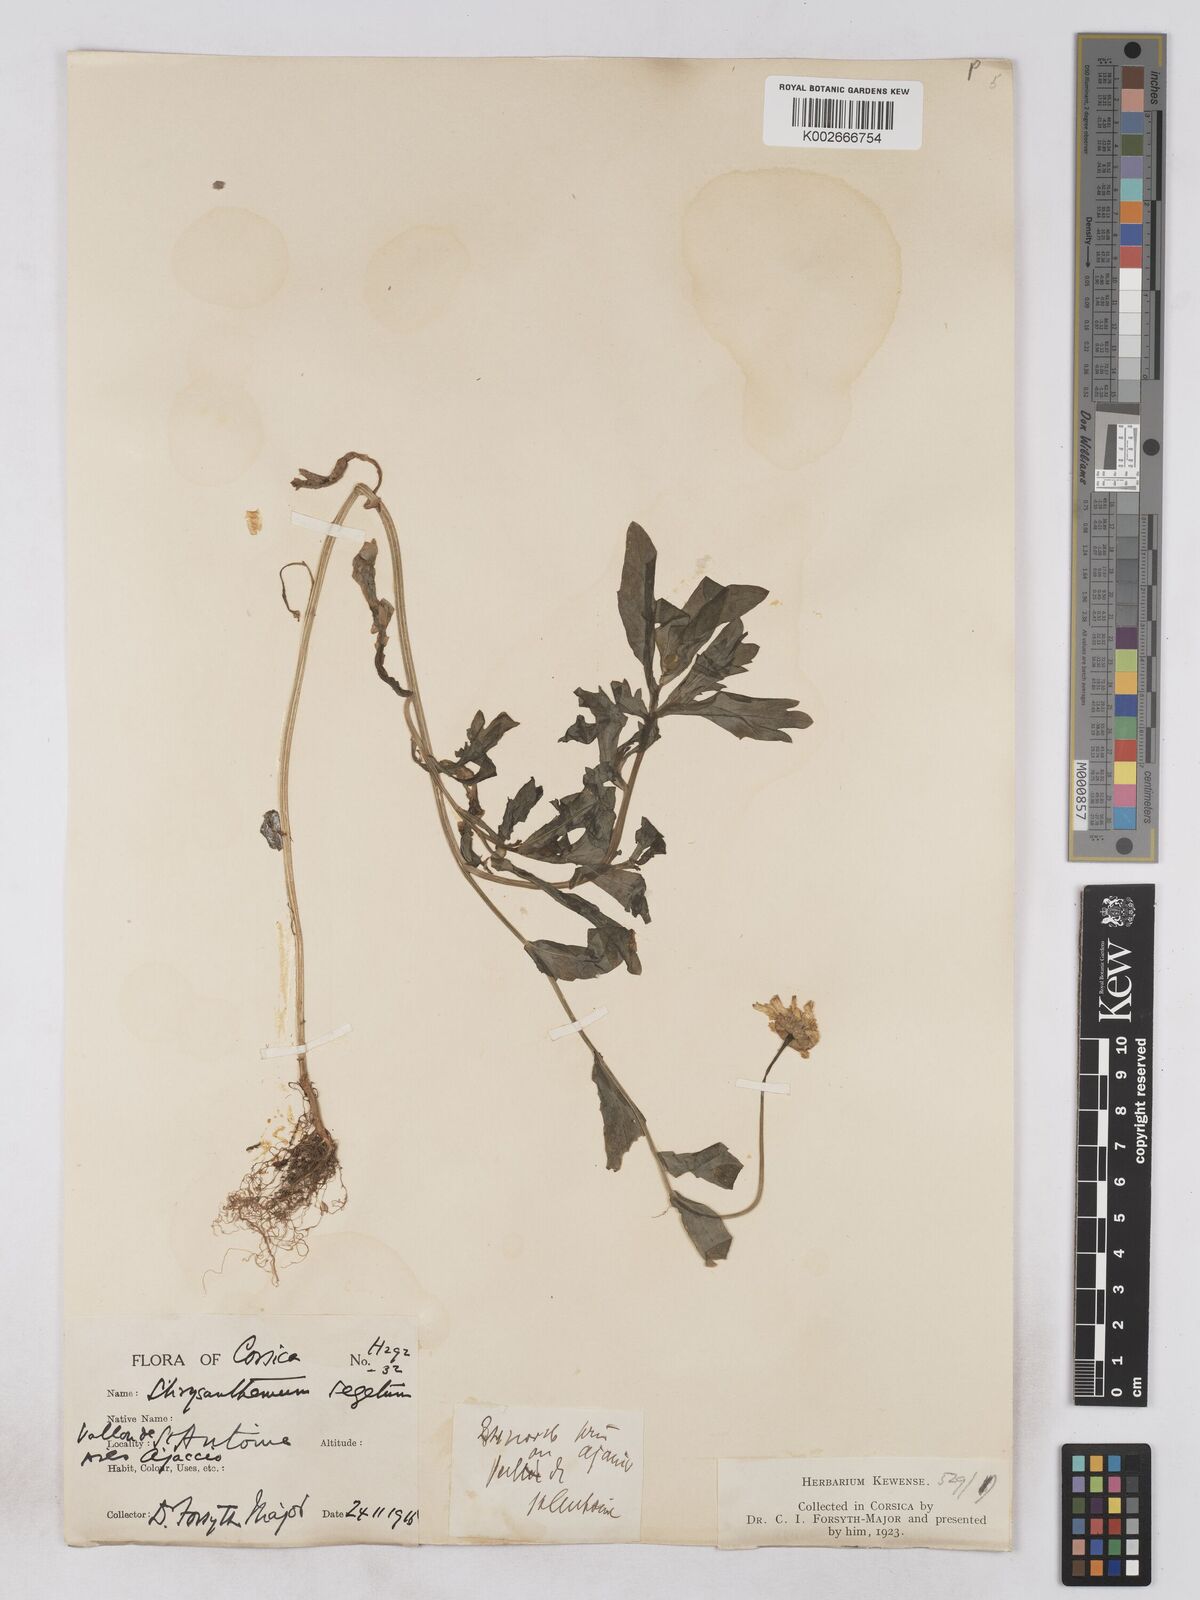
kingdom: Plantae
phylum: Tracheophyta
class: Magnoliopsida
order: Asterales
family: Asteraceae
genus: Glebionis
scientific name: Glebionis segetum
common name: Corndaisy
